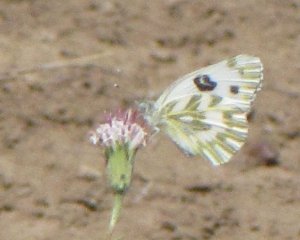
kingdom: Animalia
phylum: Arthropoda
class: Insecta
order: Lepidoptera
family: Pieridae
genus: Pontia
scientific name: Pontia beckerii
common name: Becker's White
